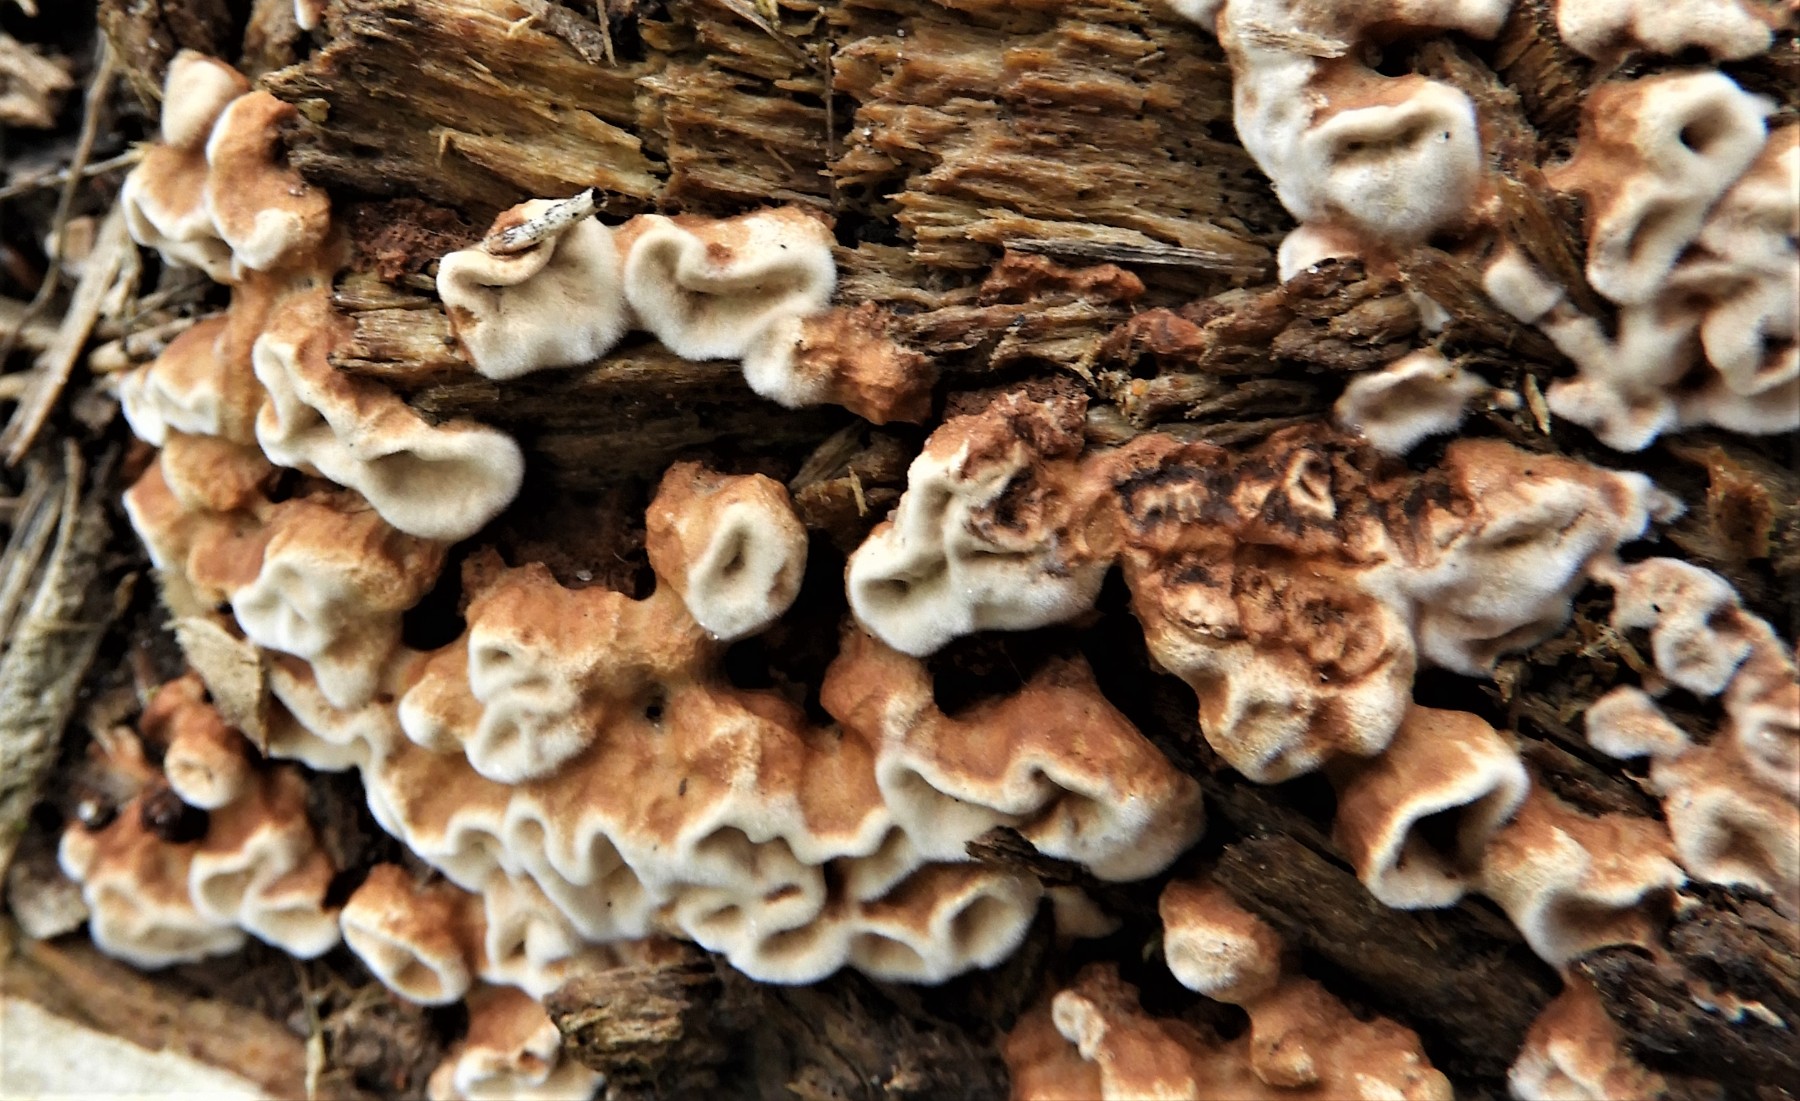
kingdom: Fungi
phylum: Basidiomycota
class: Agaricomycetes
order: Russulales
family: Hericiaceae
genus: Laxitextum
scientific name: Laxitextum bicolor
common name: tvefarvet filtskind
